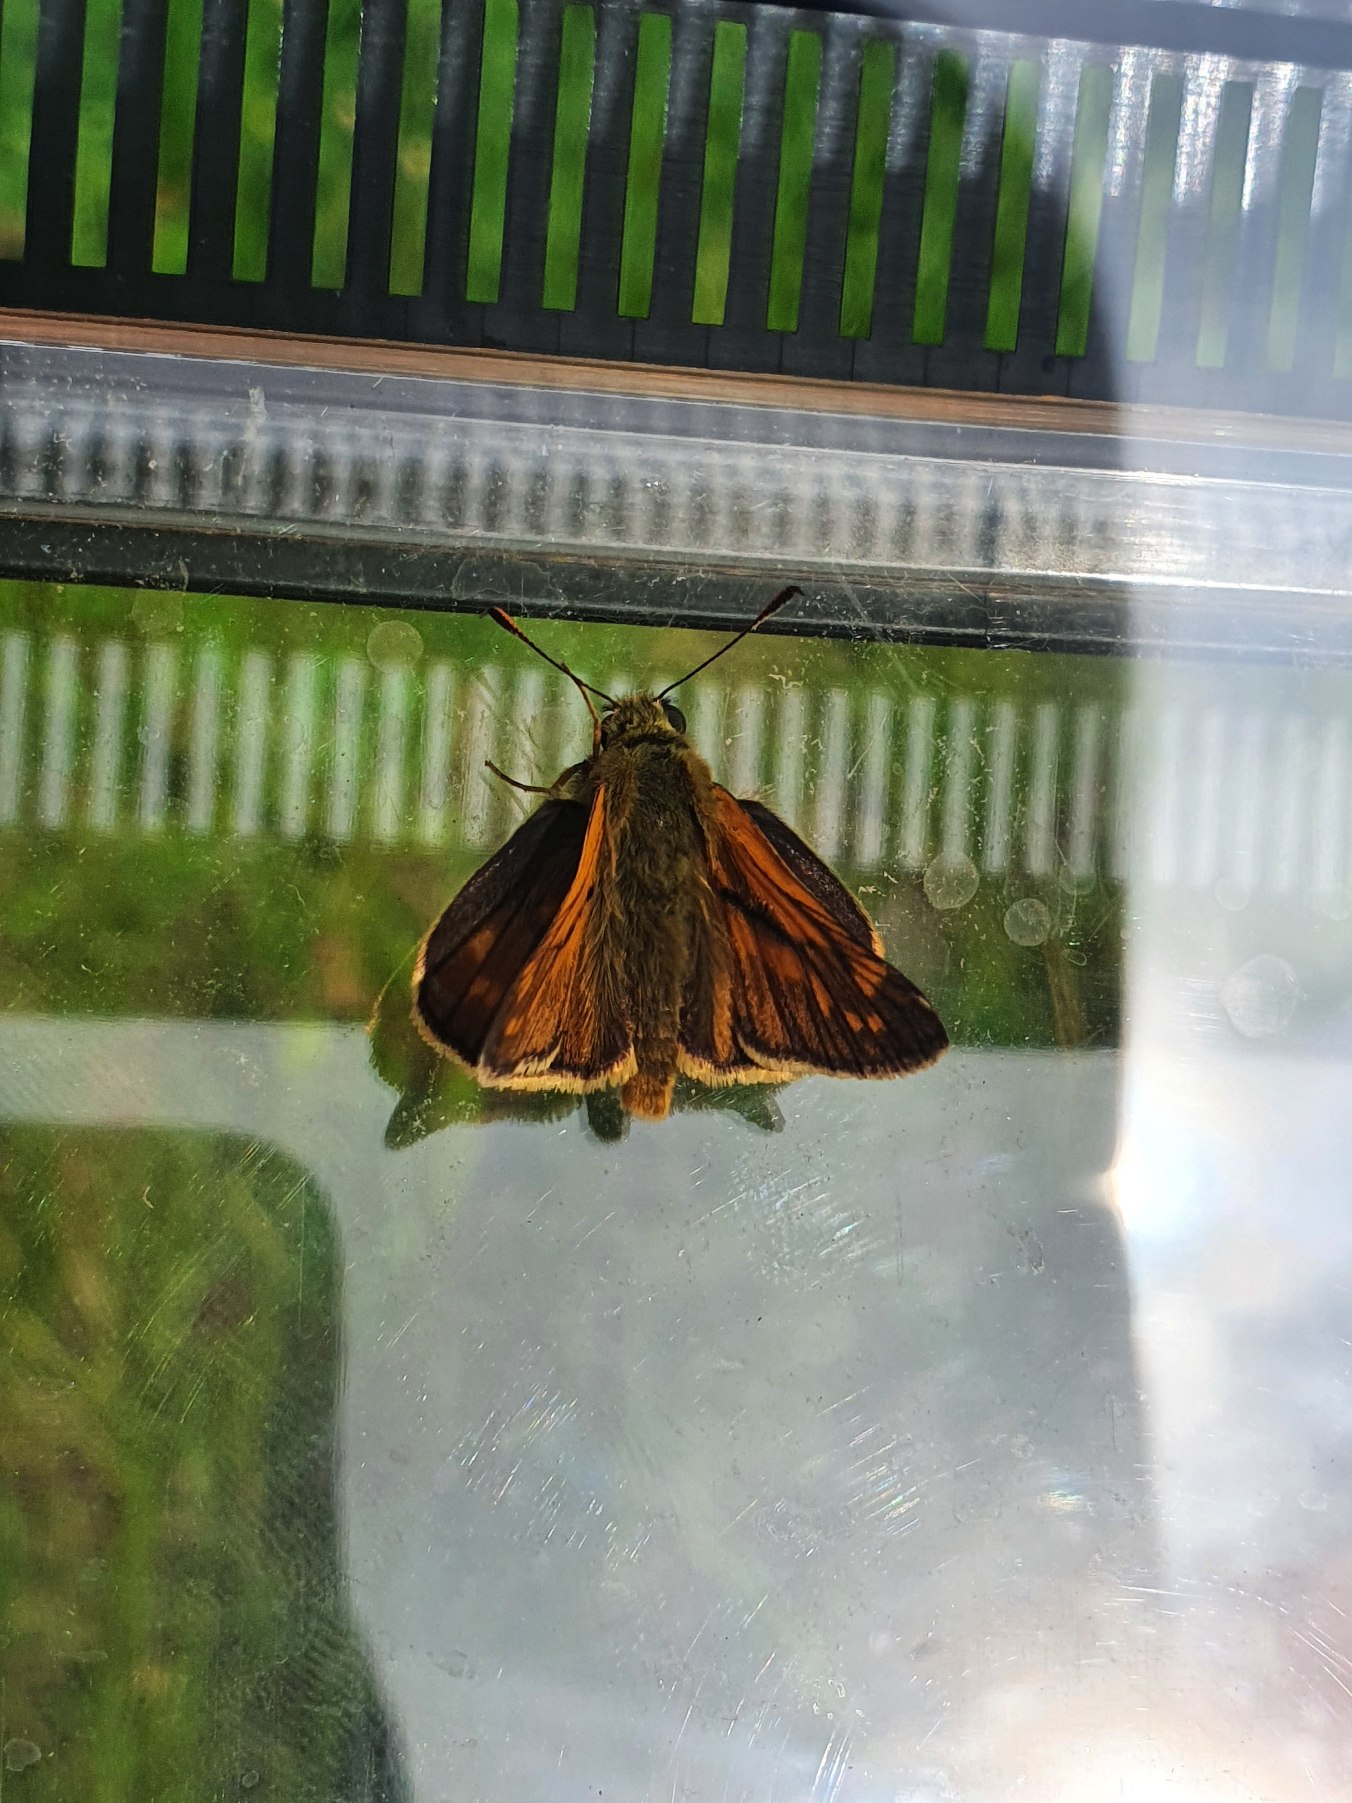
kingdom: Animalia
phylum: Arthropoda
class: Insecta
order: Lepidoptera
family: Hesperiidae
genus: Ochlodes
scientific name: Ochlodes venata
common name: Stor bredpande
